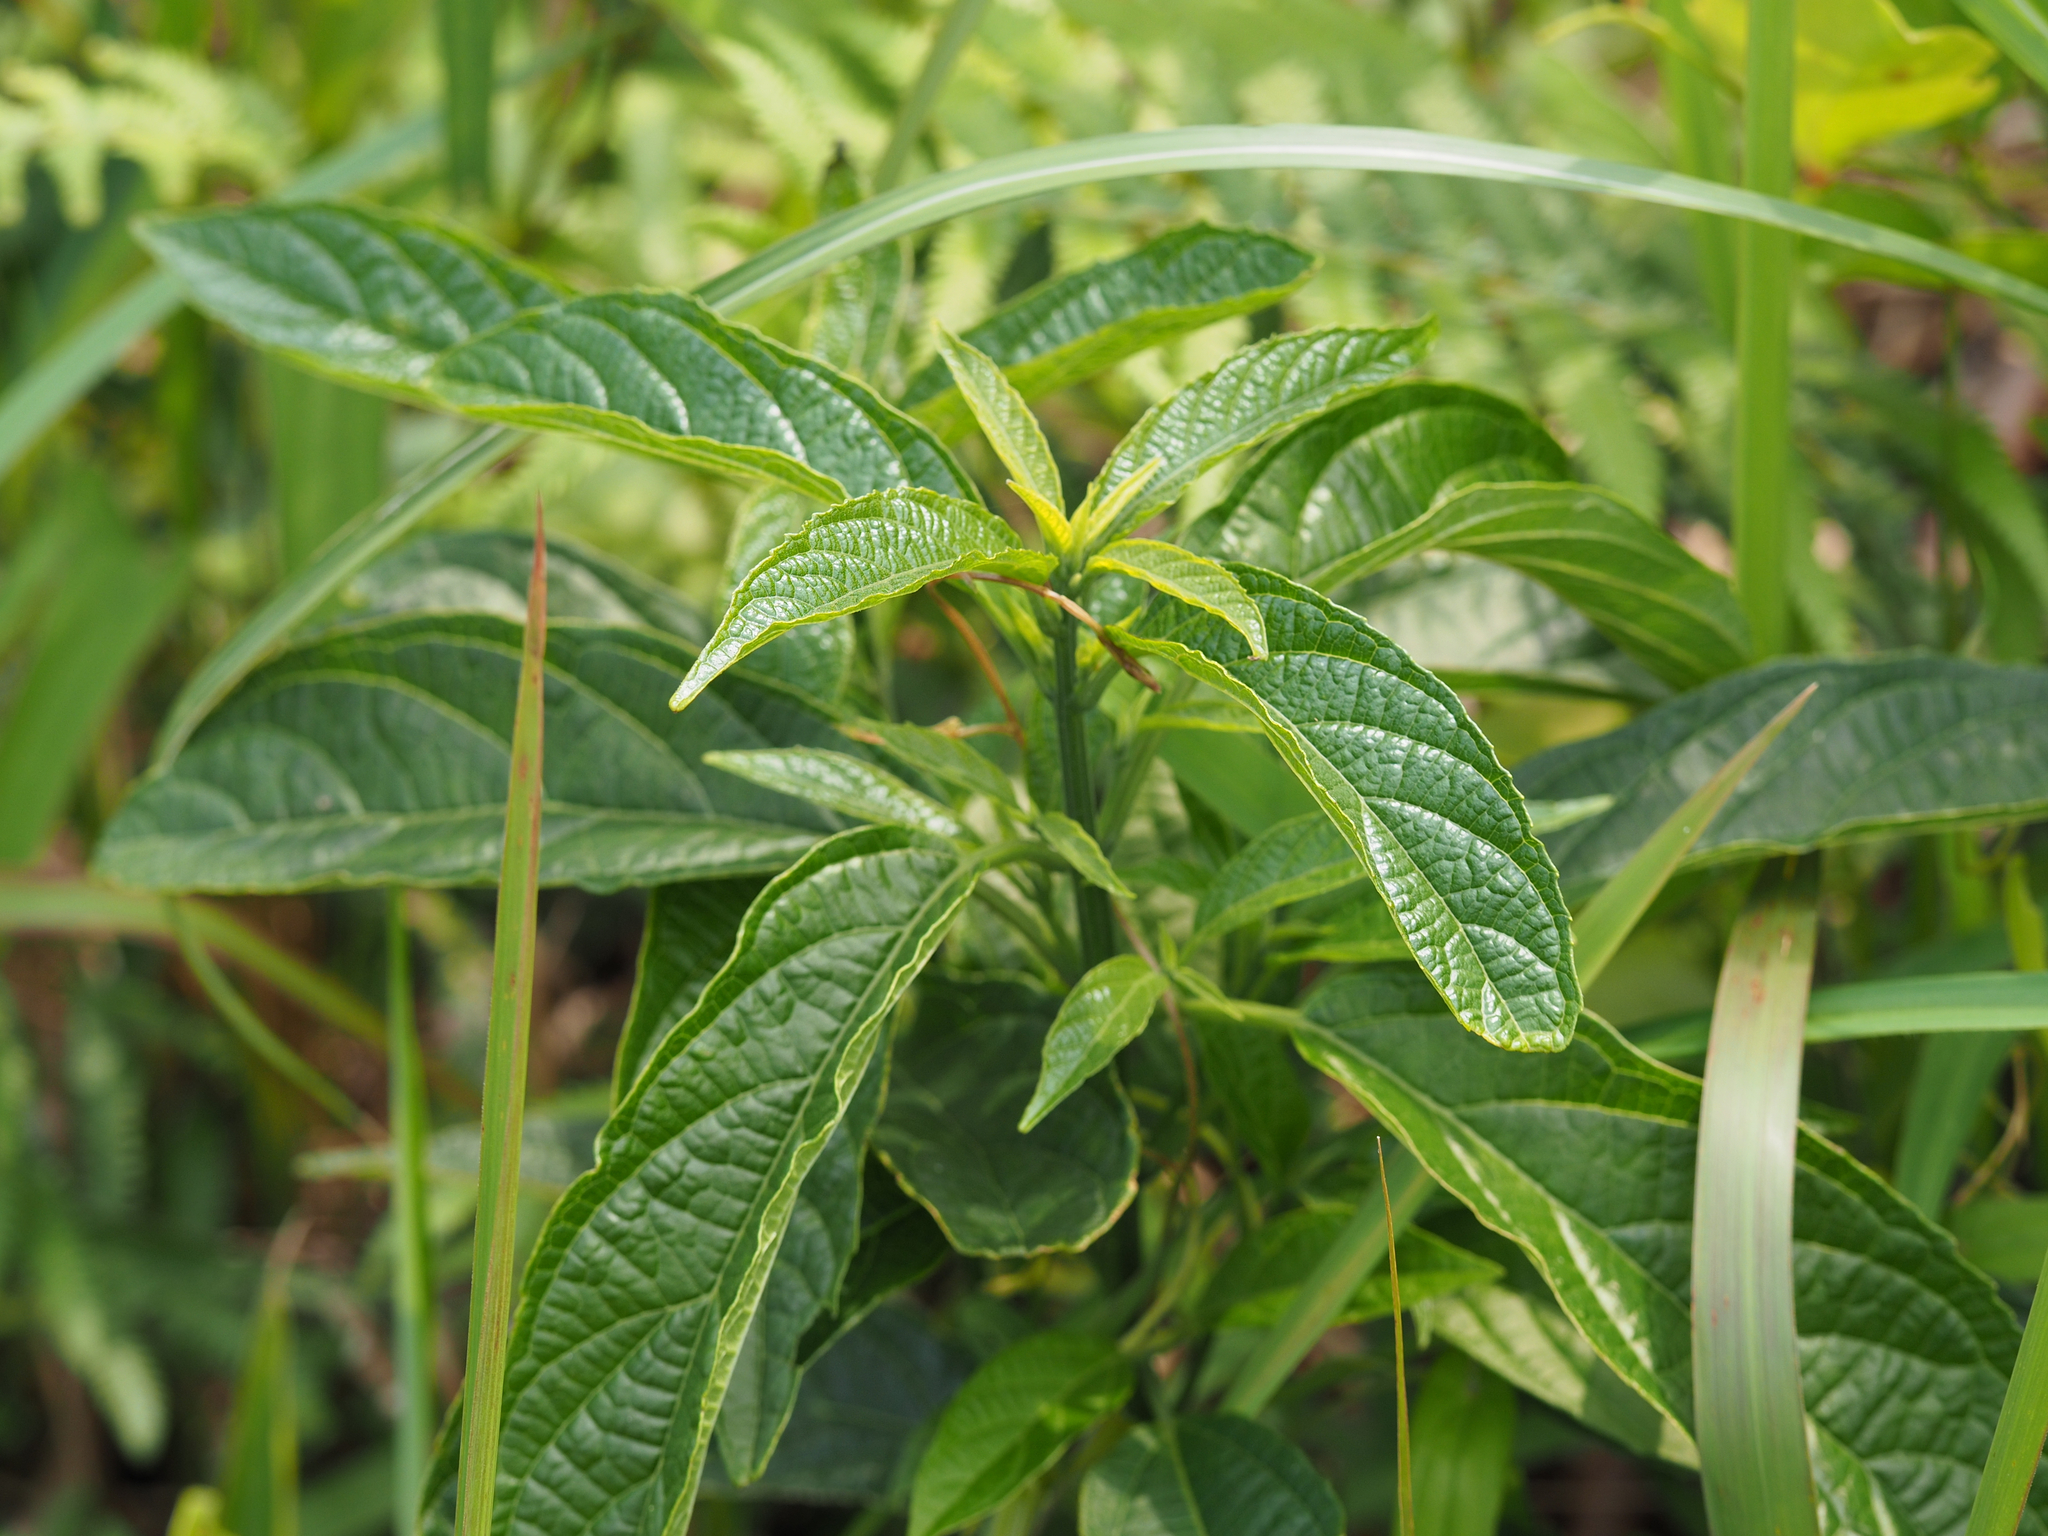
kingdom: Plantae
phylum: Tracheophyta
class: Magnoliopsida
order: Lamiales
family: Lamiaceae
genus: Clerodendrum
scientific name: Clerodendrum cyrtophyllum
